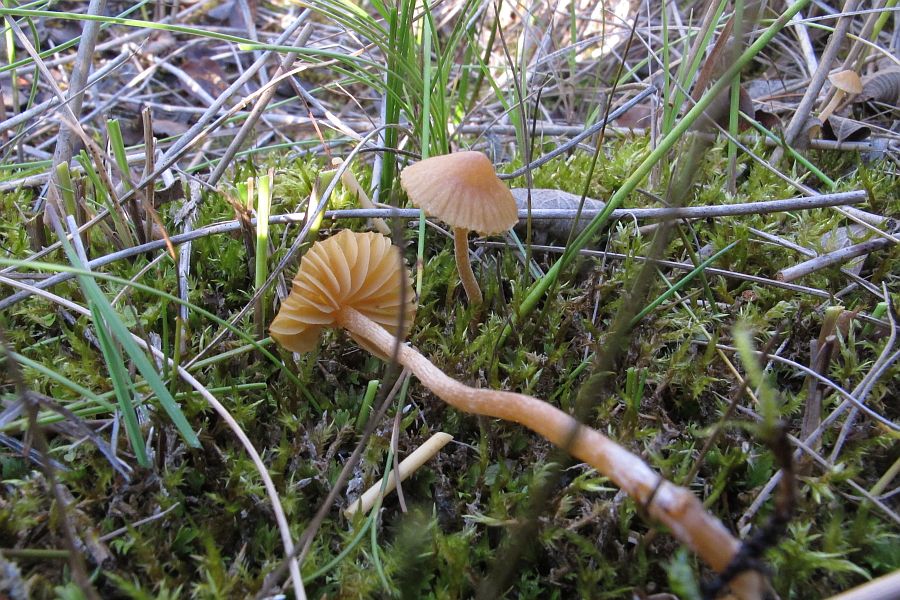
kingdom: Fungi
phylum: Basidiomycota
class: Agaricomycetes
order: Agaricales
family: Hymenogastraceae
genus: Galerina
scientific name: Galerina clavata
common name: kær-hjelmhat
